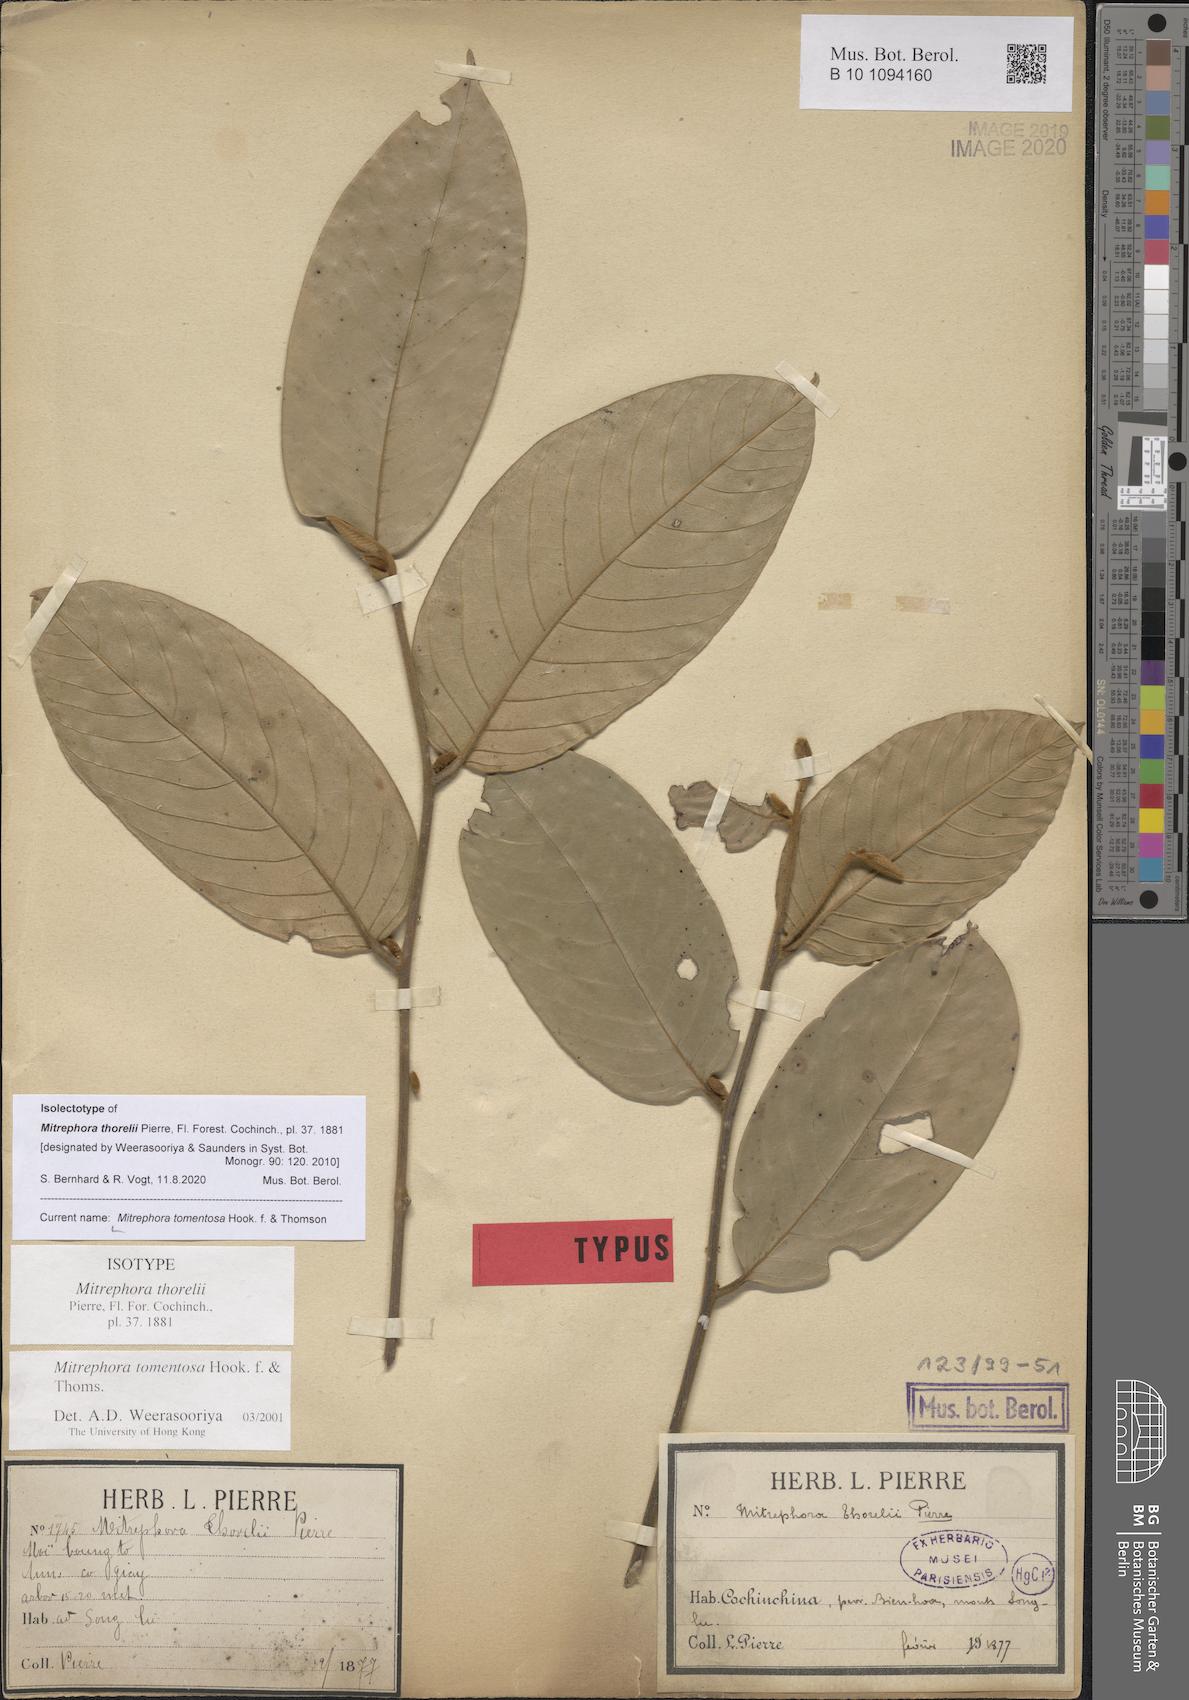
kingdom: Plantae
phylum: Tracheophyta
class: Magnoliopsida
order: Magnoliales
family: Annonaceae
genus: Mitrephora
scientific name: Mitrephora tomentosa
